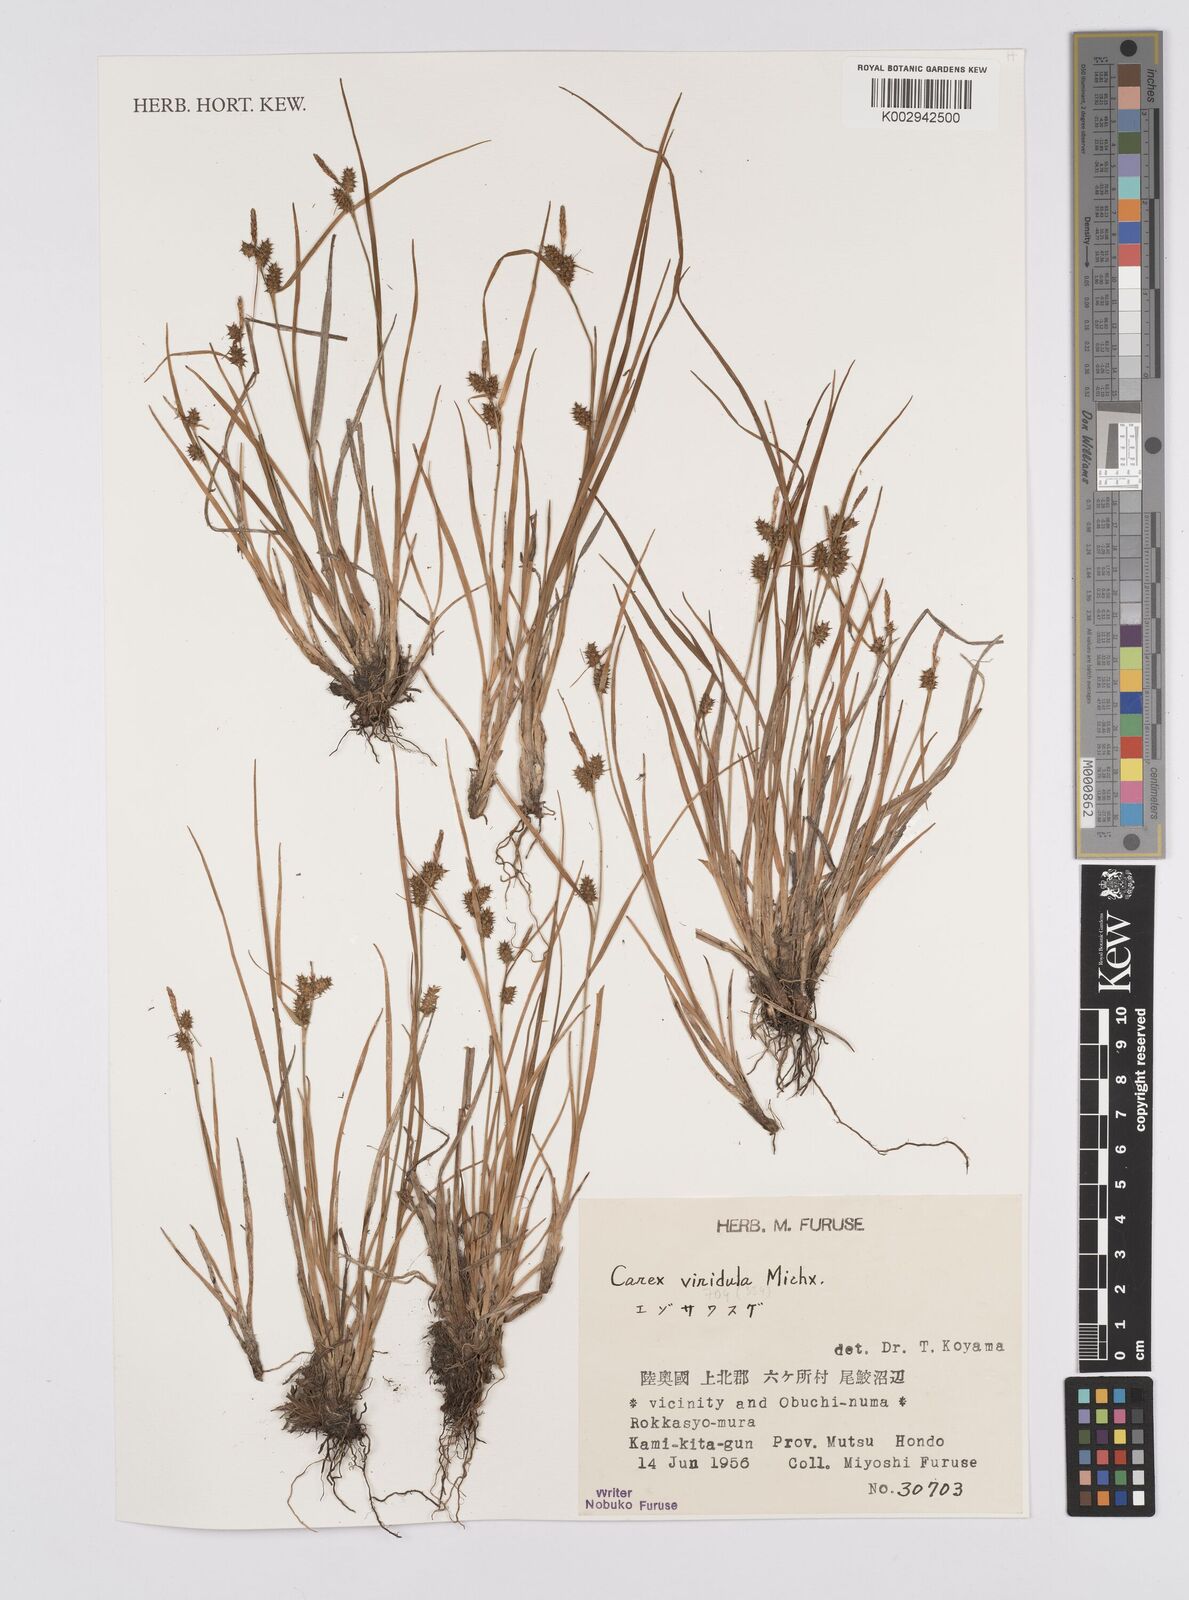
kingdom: Plantae
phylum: Tracheophyta
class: Liliopsida
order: Poales
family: Cyperaceae
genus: Carex
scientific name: Carex oederi
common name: Common & small-fruited yellow-sedge
